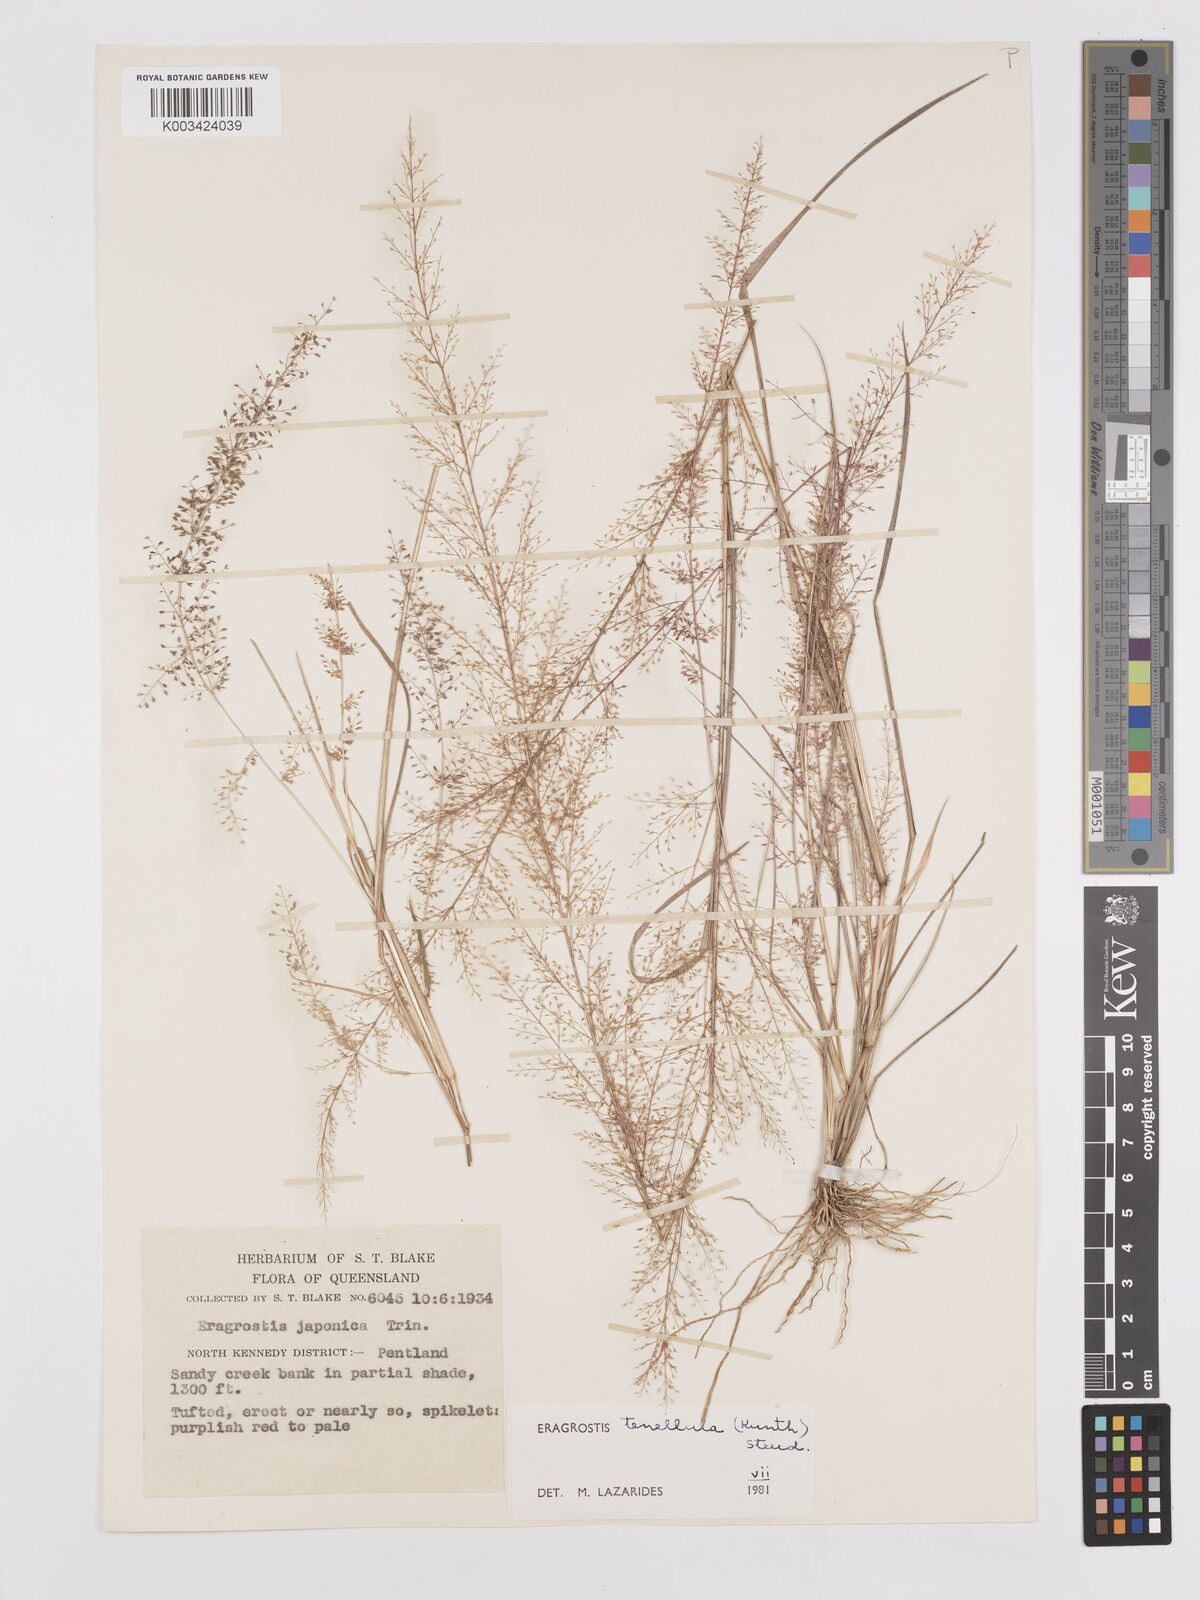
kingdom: Plantae
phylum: Tracheophyta
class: Liliopsida
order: Poales
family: Poaceae
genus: Eragrostis
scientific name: Eragrostis tenellula
